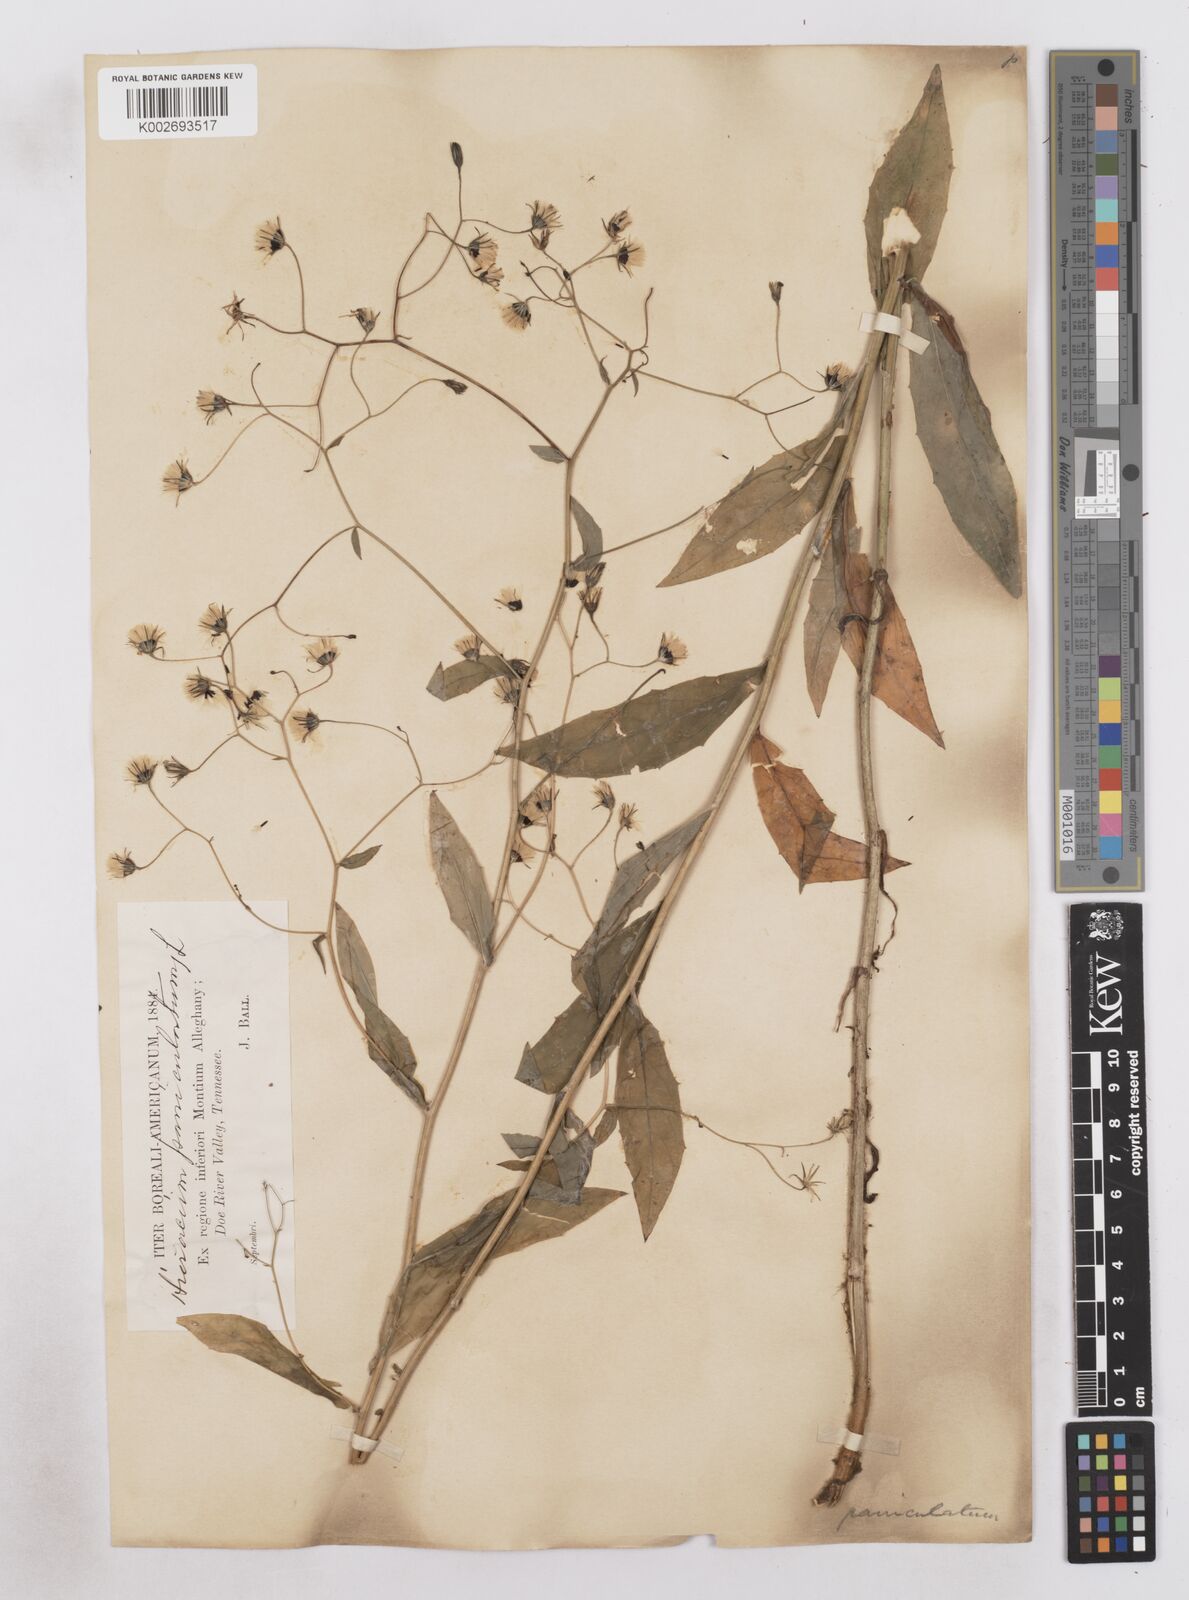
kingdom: Plantae
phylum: Tracheophyta
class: Magnoliopsida
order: Asterales
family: Asteraceae
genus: Hieracium
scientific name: Hieracium paniculatum
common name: Allegheny hawkweed
